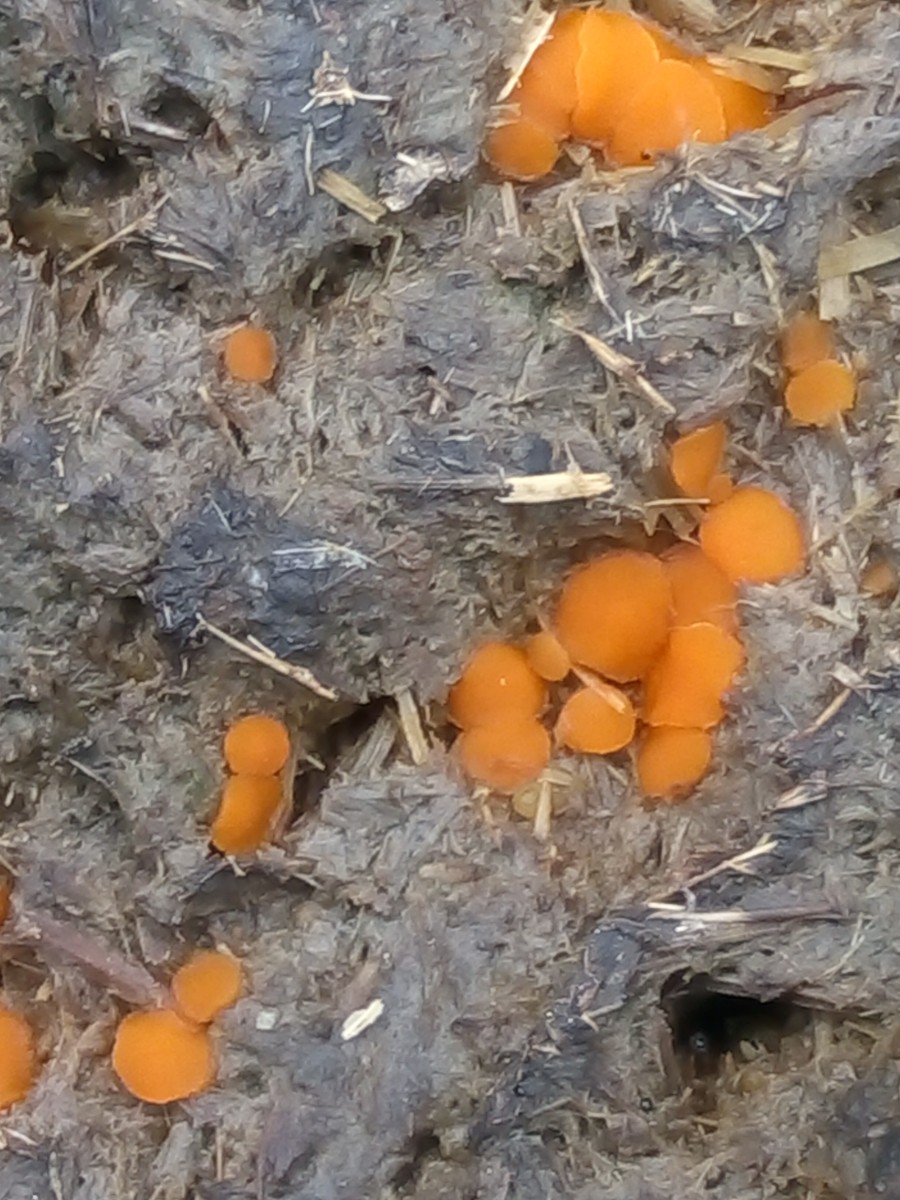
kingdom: Fungi
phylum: Ascomycota
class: Pezizomycetes
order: Pezizales
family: Pyronemataceae
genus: Cheilymenia
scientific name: Cheilymenia granulata
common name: møgbæger
